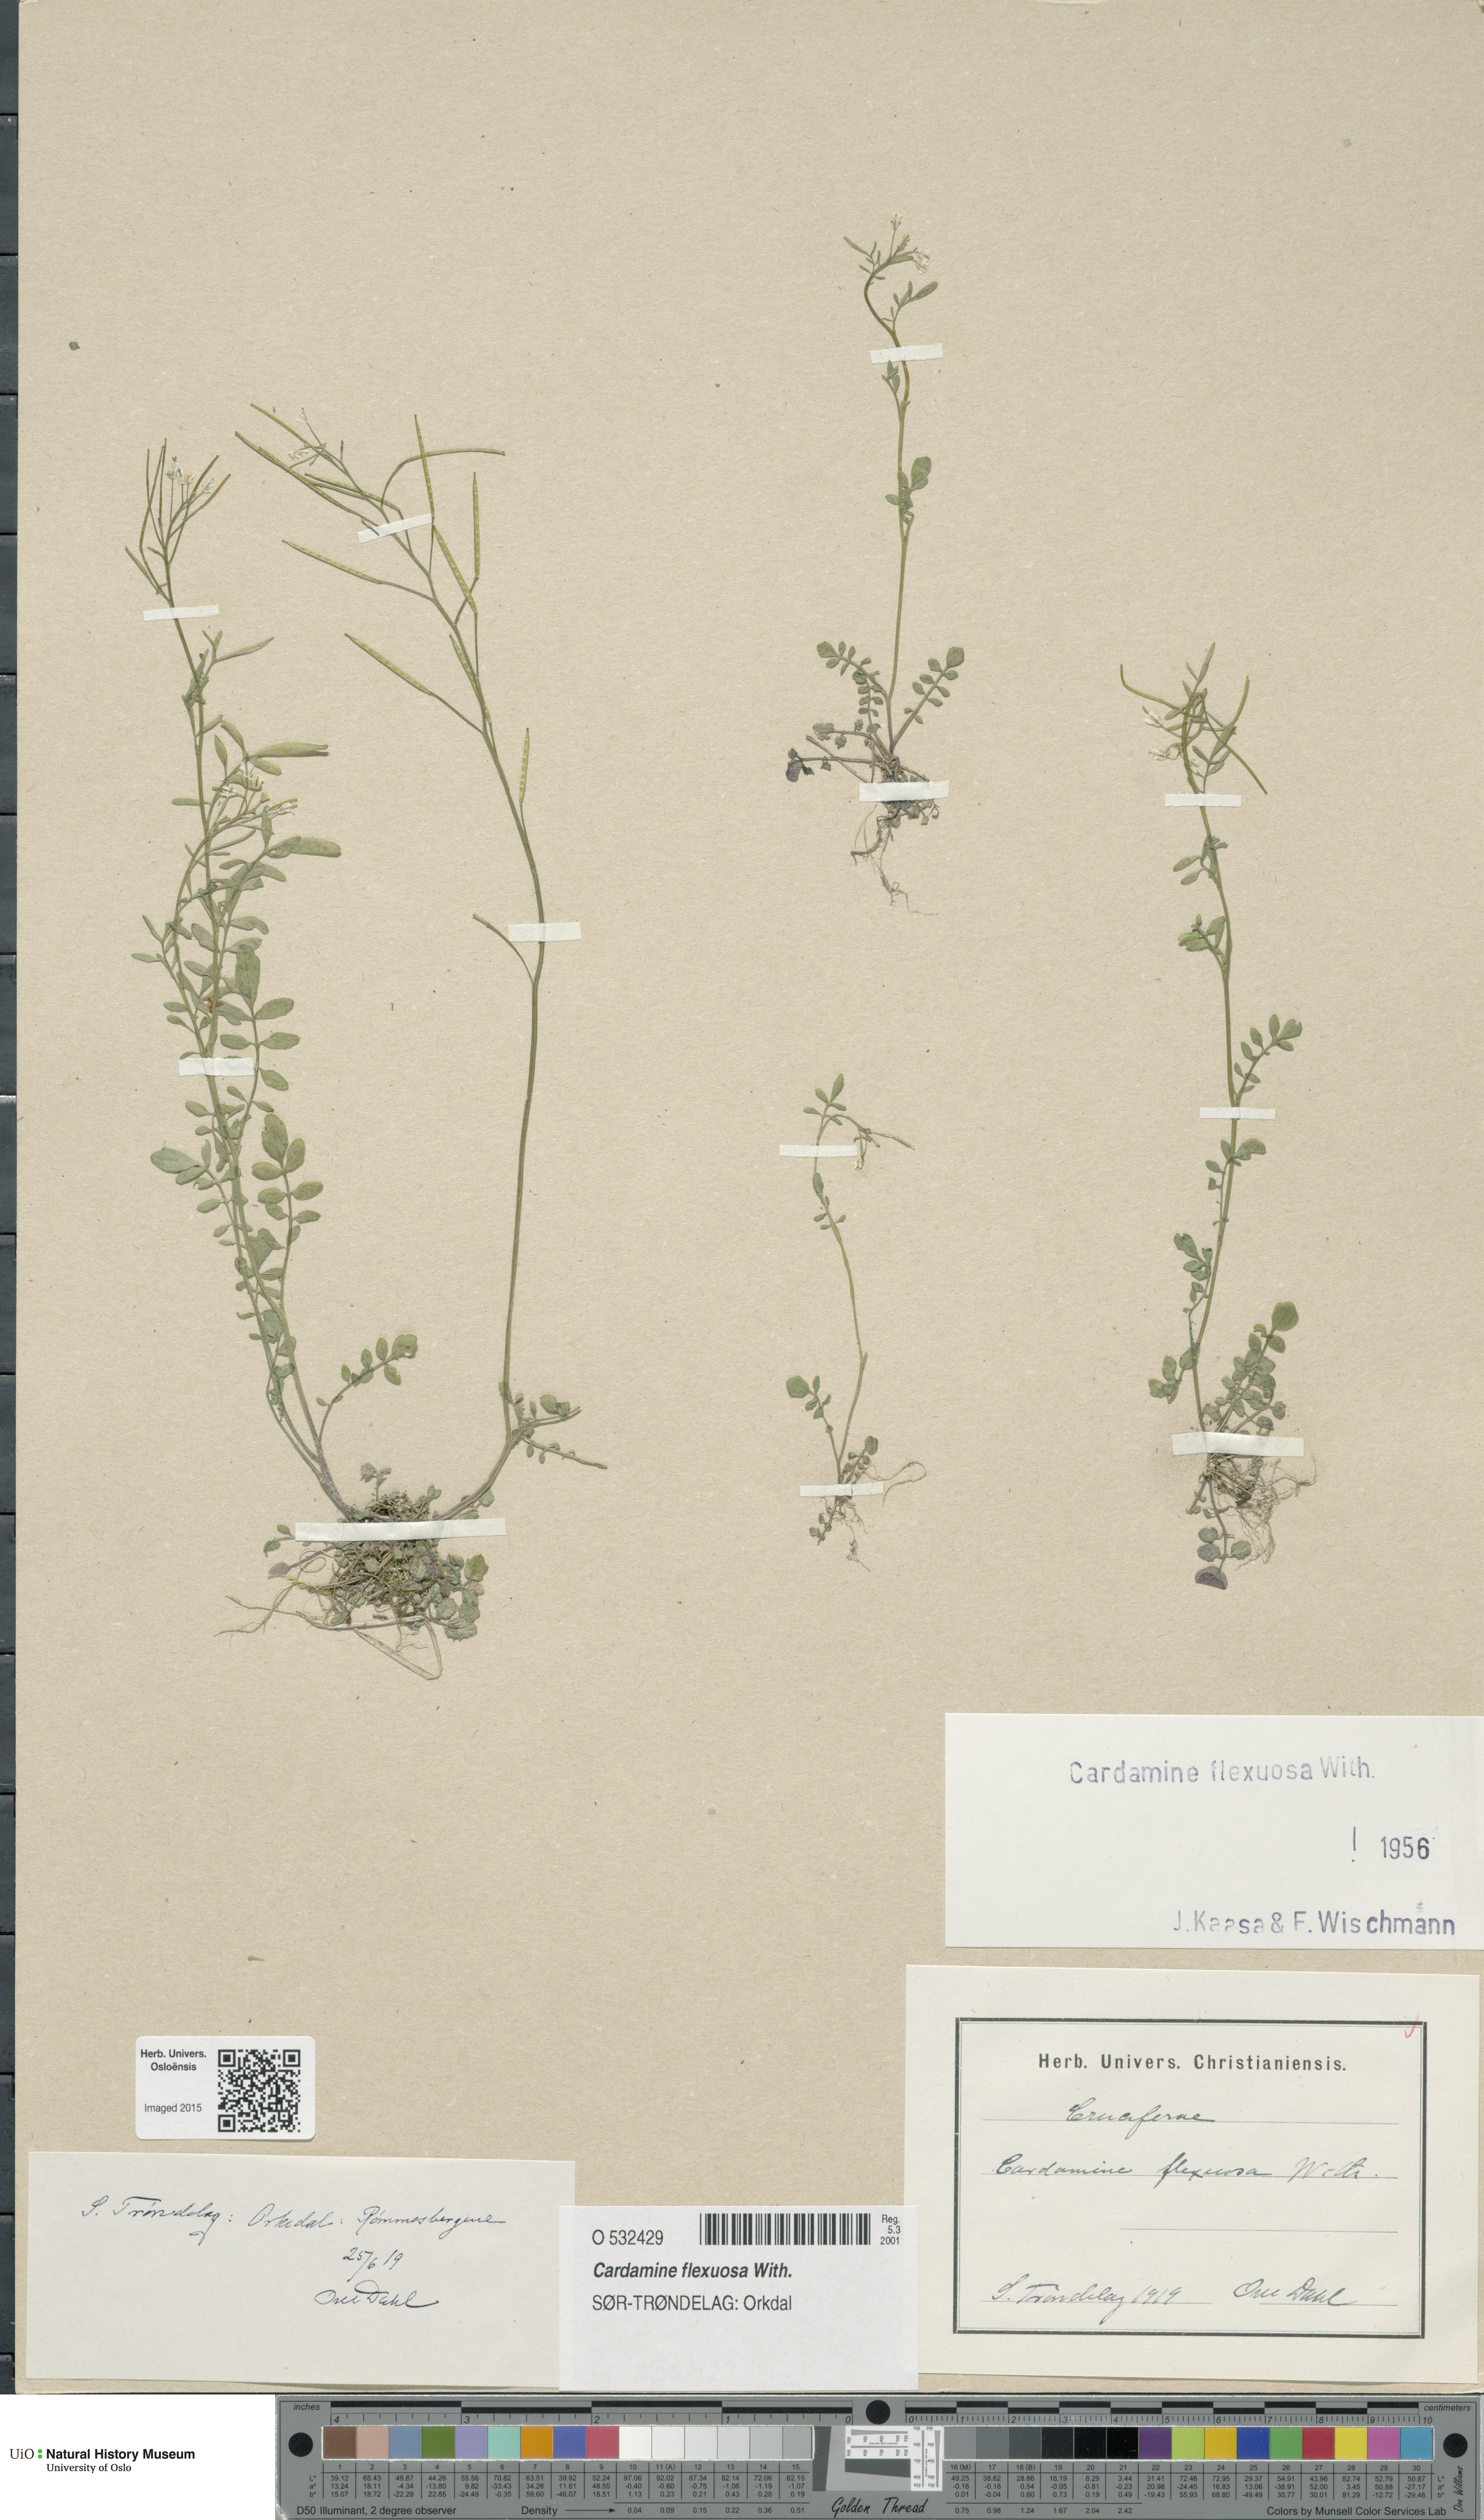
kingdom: Plantae
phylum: Tracheophyta
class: Magnoliopsida
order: Brassicales
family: Brassicaceae
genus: Cardamine
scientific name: Cardamine flexuosa
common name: Woodland bittercress
